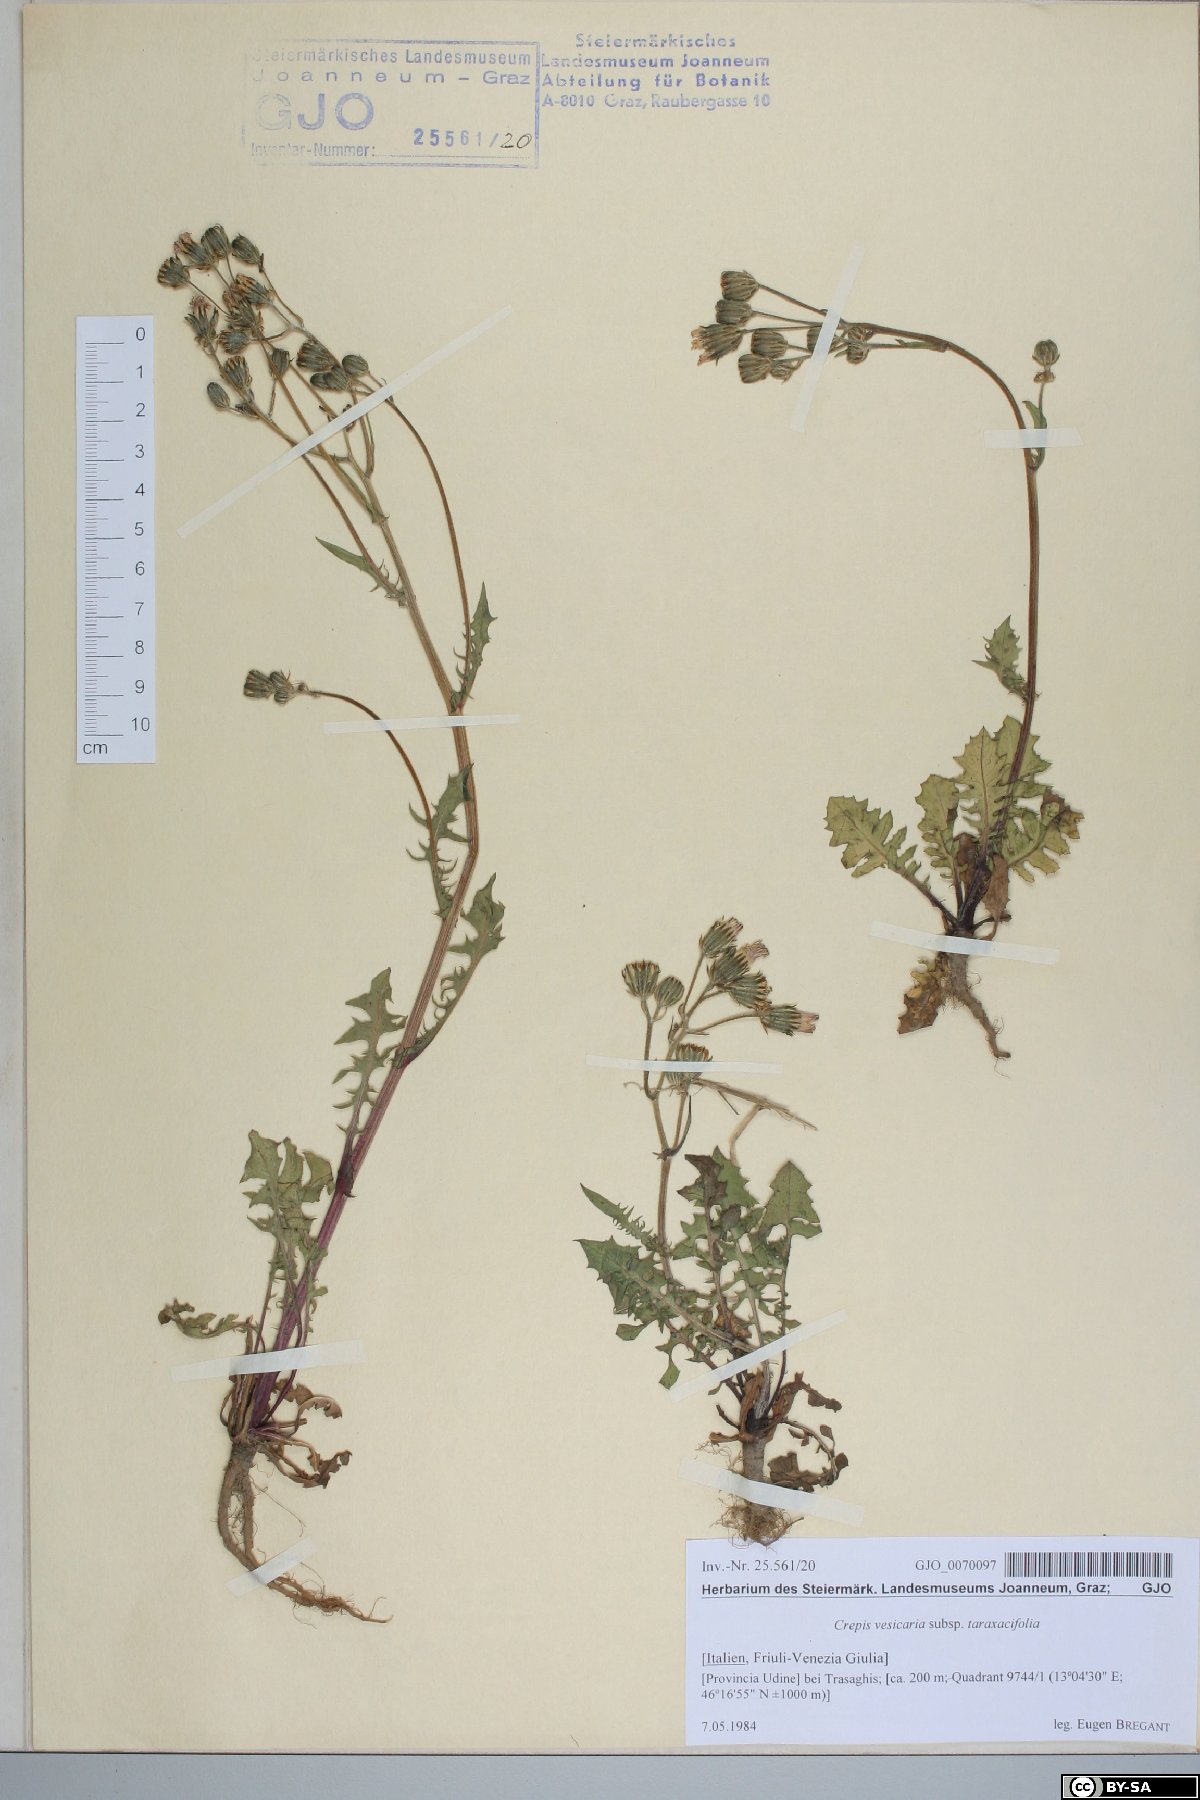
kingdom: Plantae
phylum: Tracheophyta
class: Magnoliopsida
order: Asterales
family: Asteraceae
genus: Crepis
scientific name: Crepis vesicaria
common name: Beaked hawksbeard
